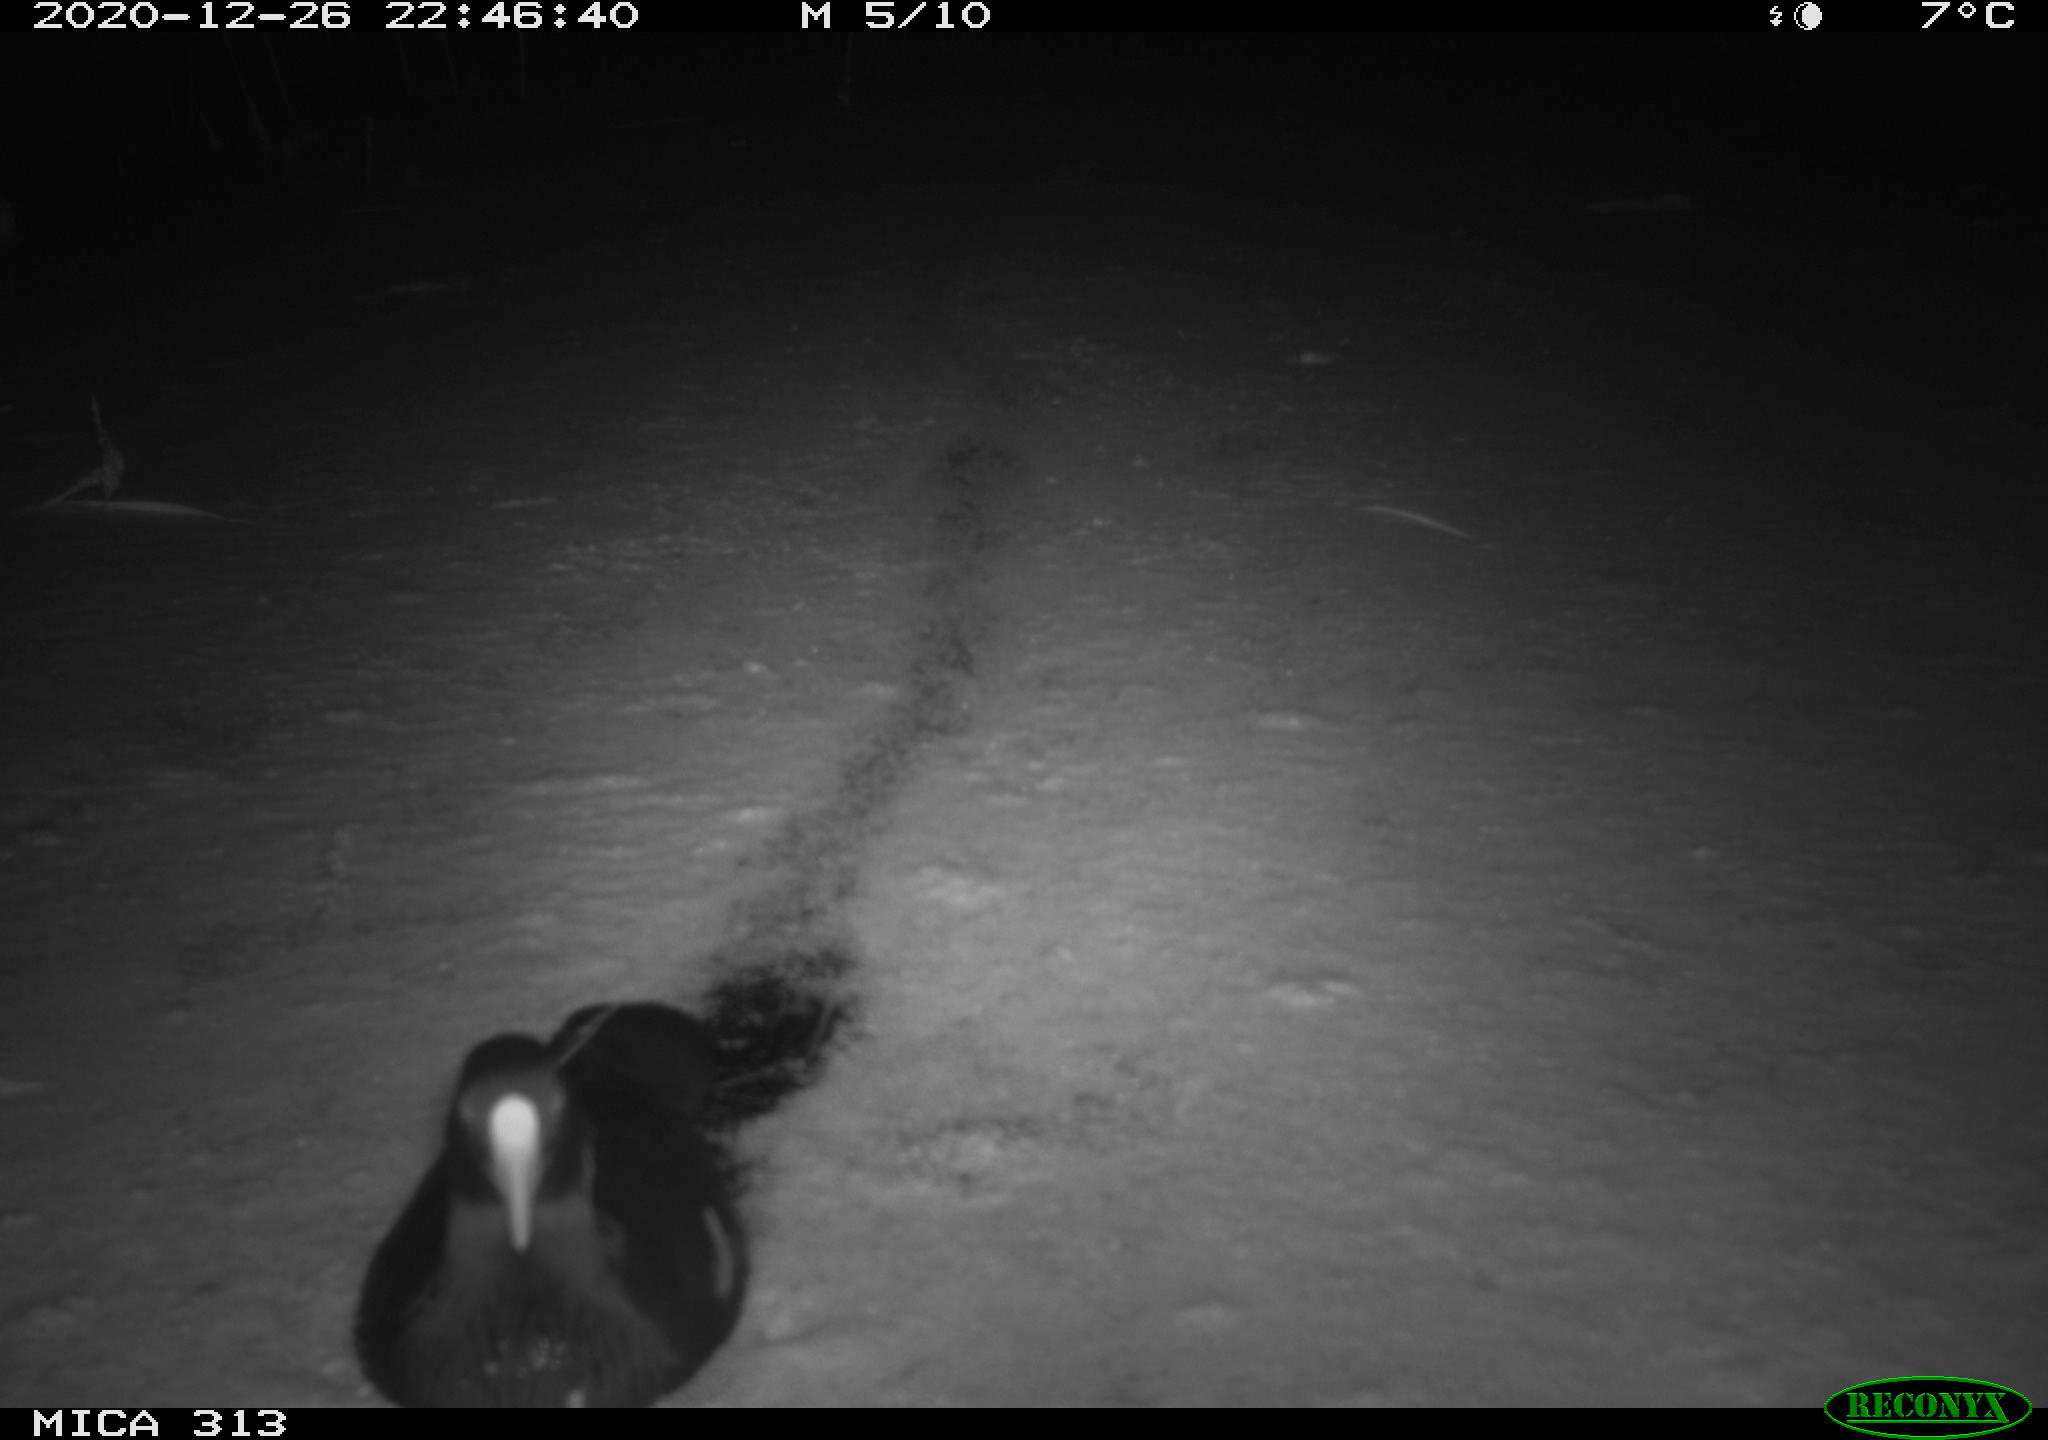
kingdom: Animalia
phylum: Chordata
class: Aves
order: Gruiformes
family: Rallidae
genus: Fulica
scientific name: Fulica atra
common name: Eurasian coot
